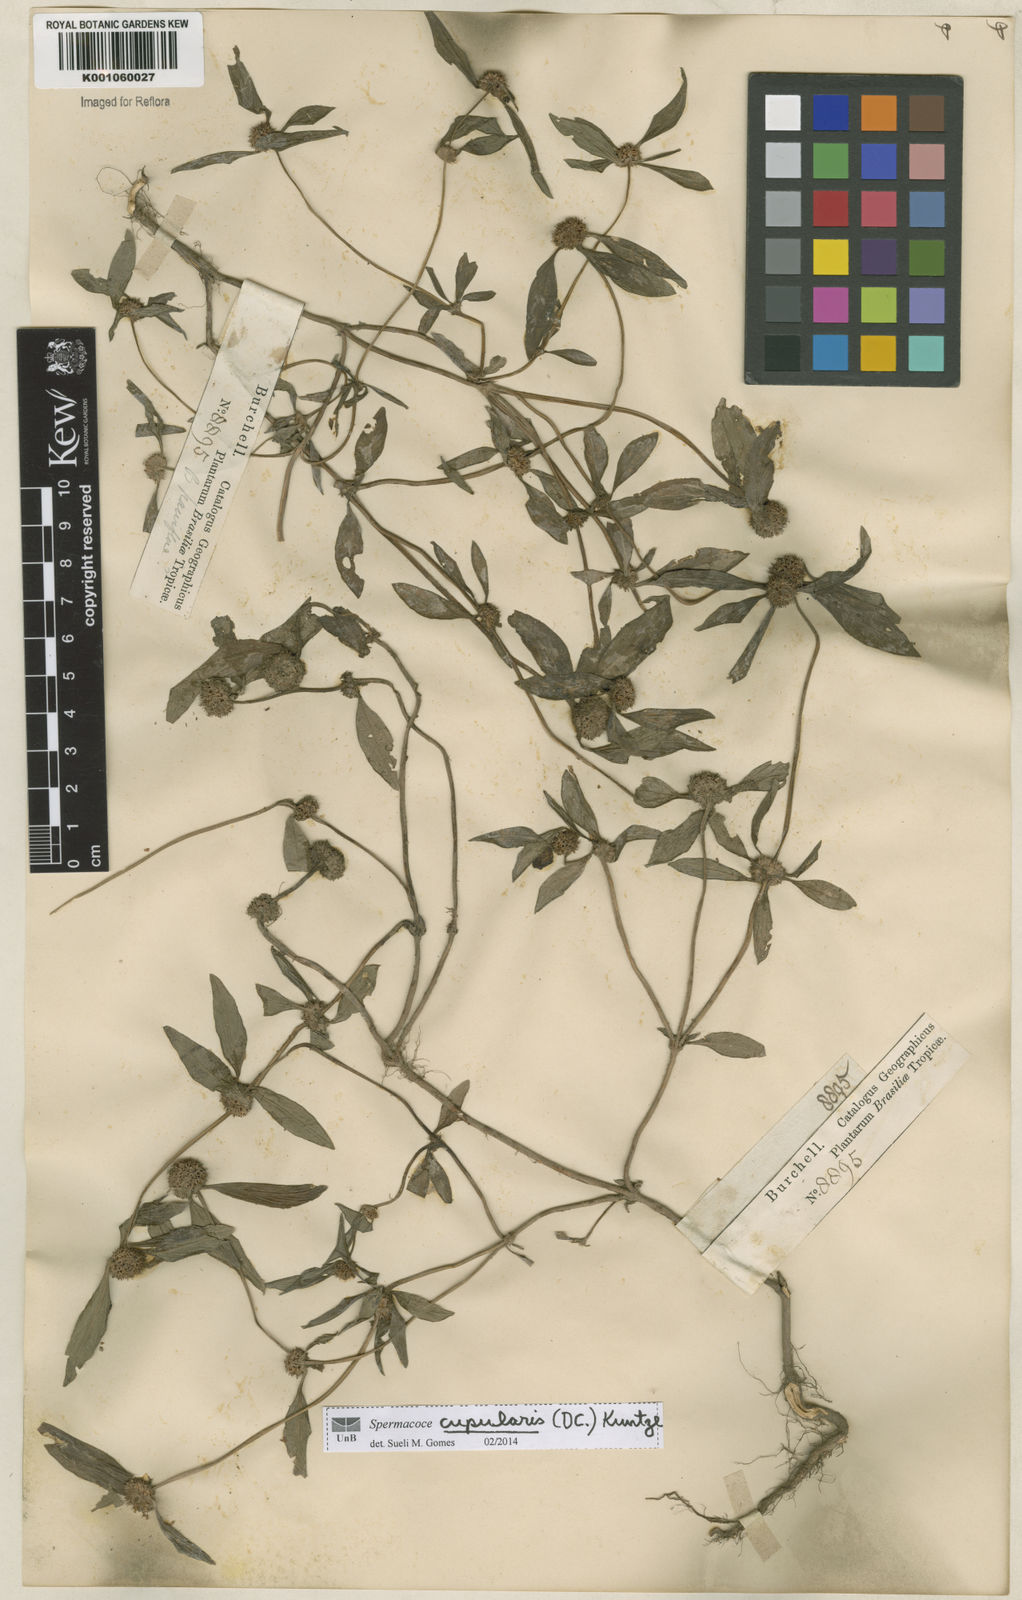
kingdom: Plantae
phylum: Tracheophyta
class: Magnoliopsida
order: Gentianales
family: Rubiaceae
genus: Spermacoce
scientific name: Spermacoce cupularis
